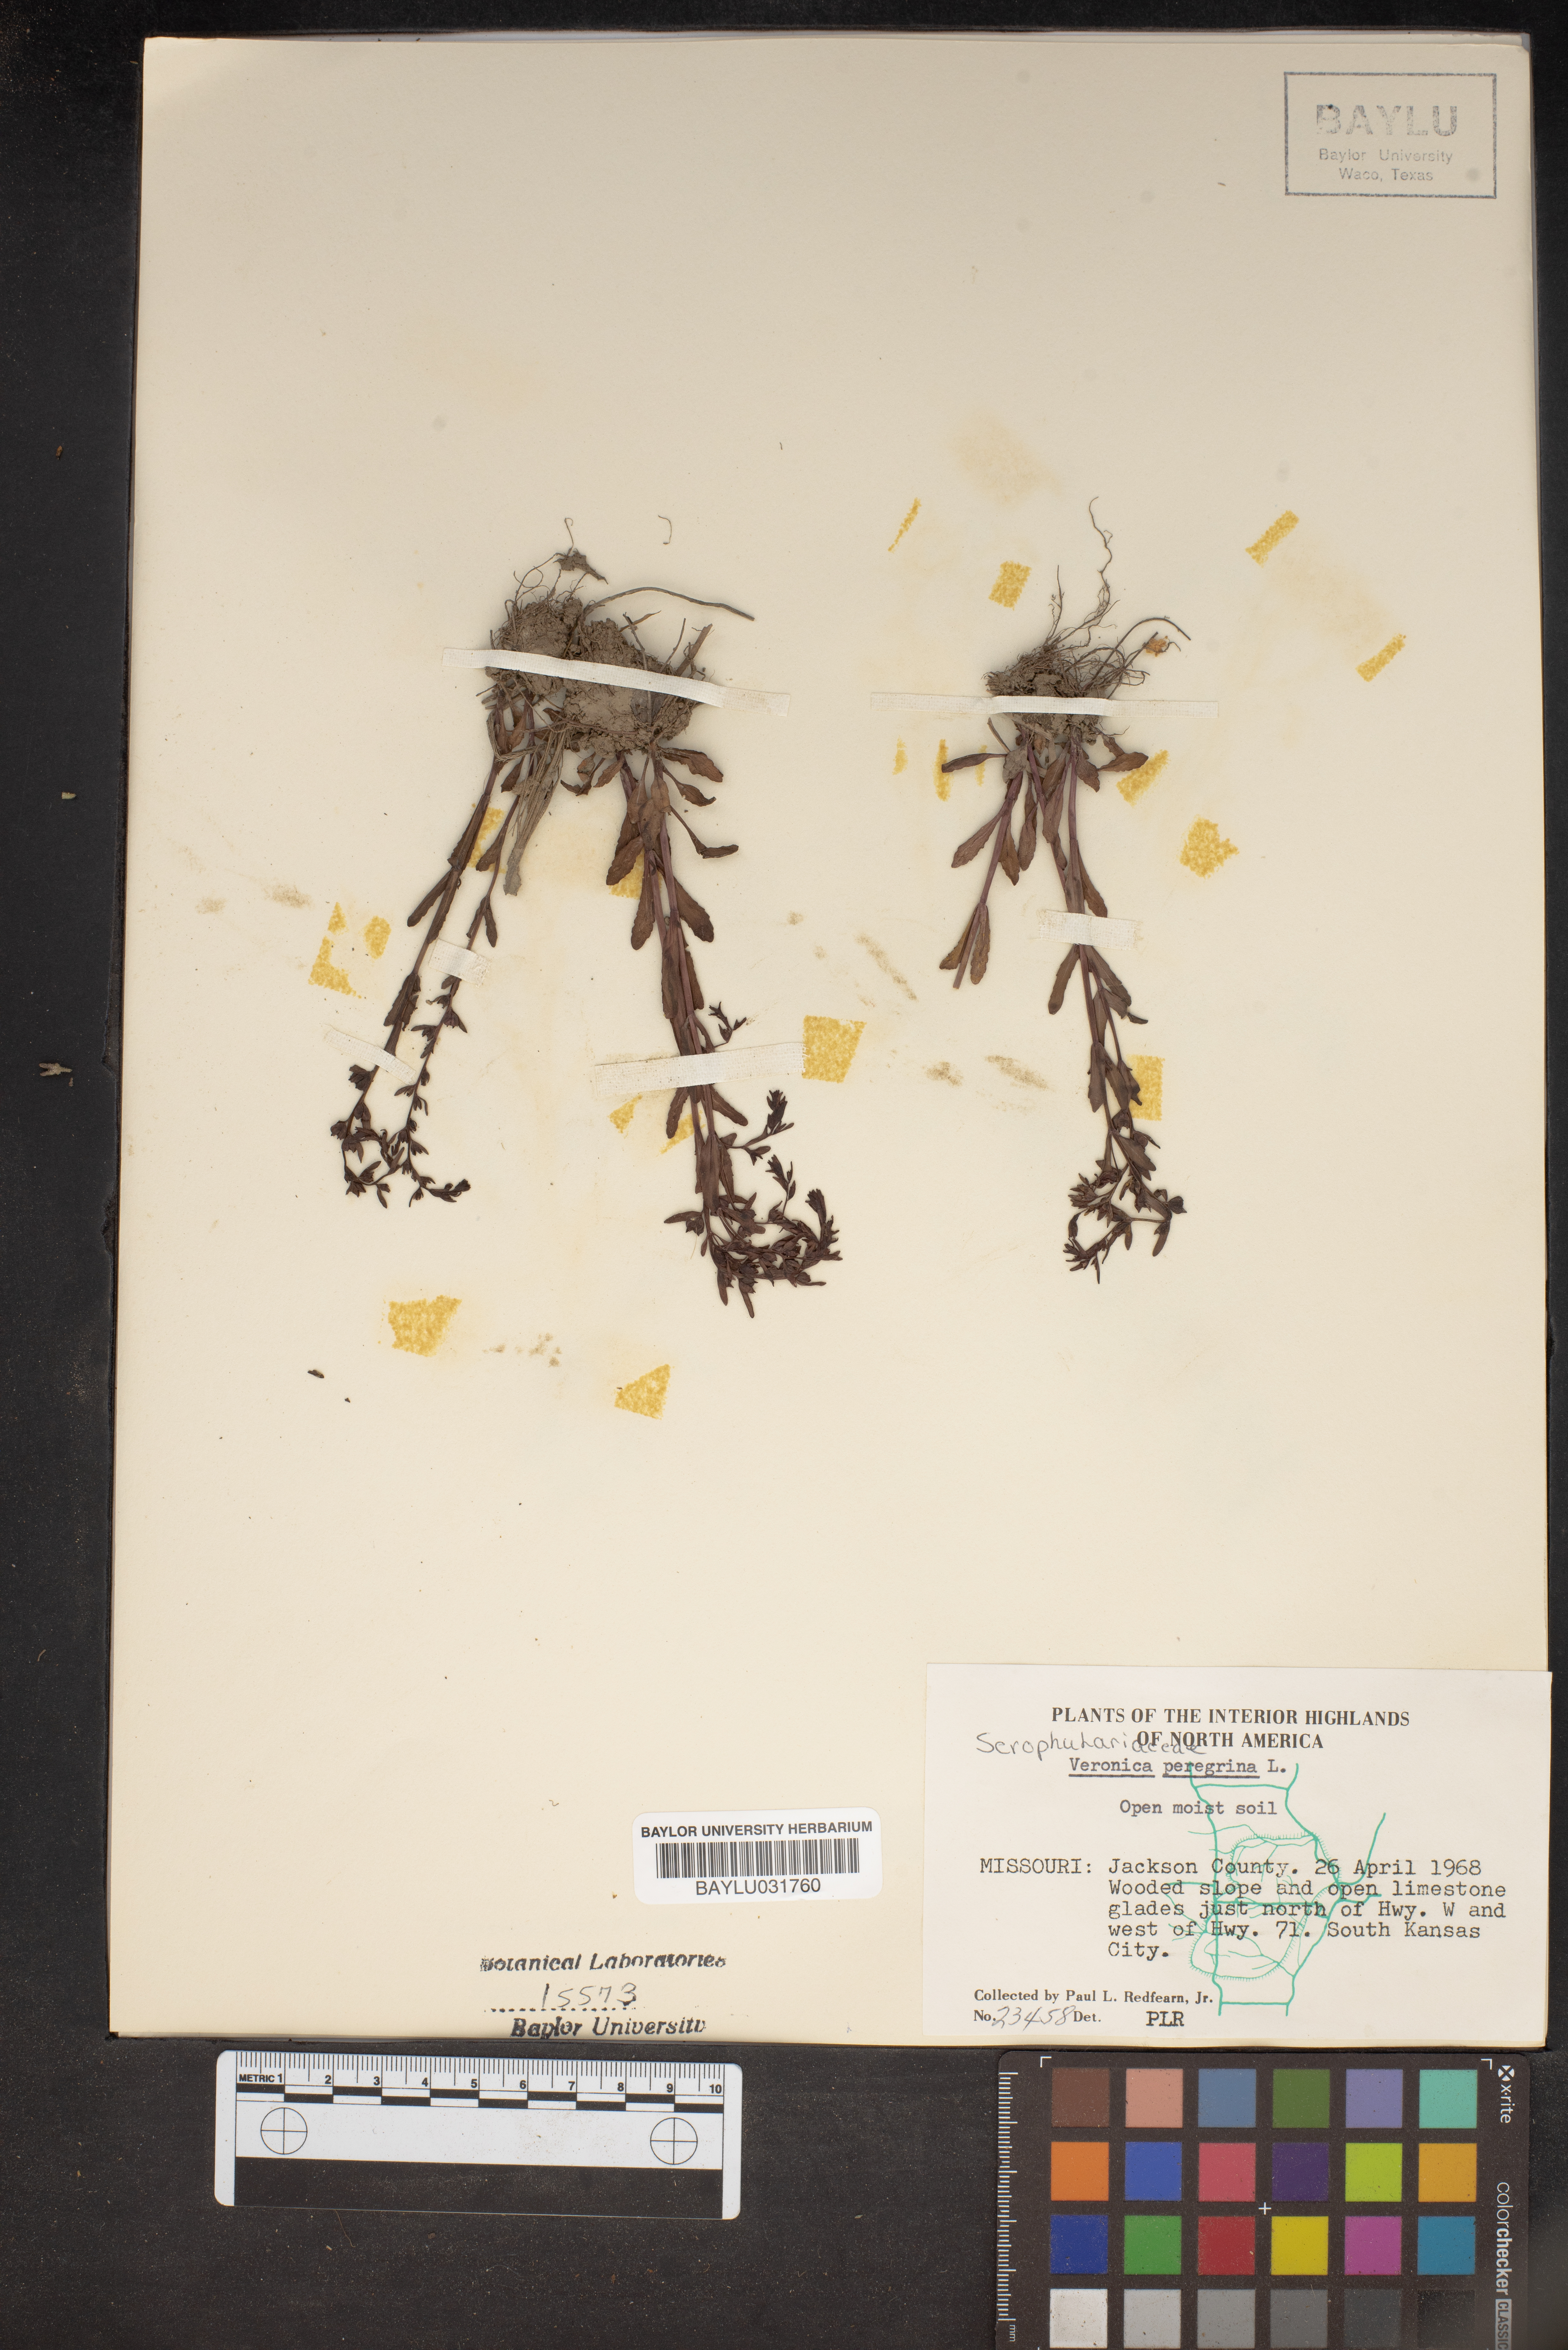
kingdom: Plantae
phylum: Tracheophyta
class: Magnoliopsida
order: Lamiales
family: Plantaginaceae
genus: Veronica
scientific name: Veronica peregrina
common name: Neckweed
